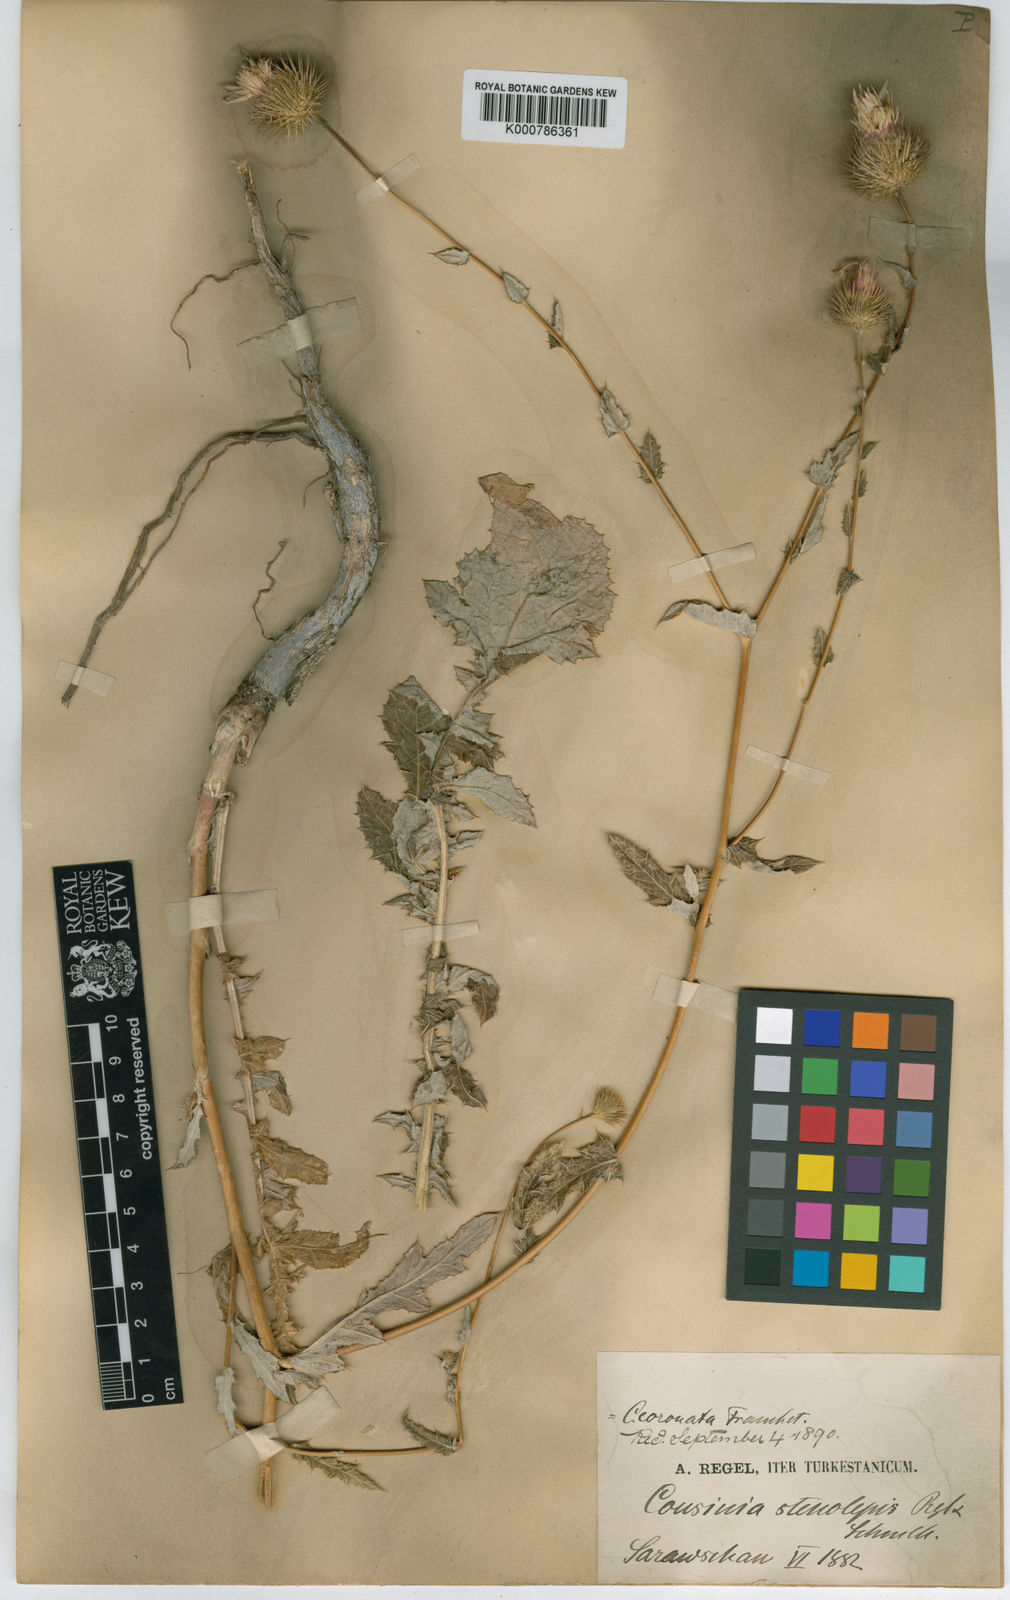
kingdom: Plantae
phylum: Tracheophyta
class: Magnoliopsida
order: Asterales
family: Asteraceae
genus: Cousinia
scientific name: Cousinia radians
